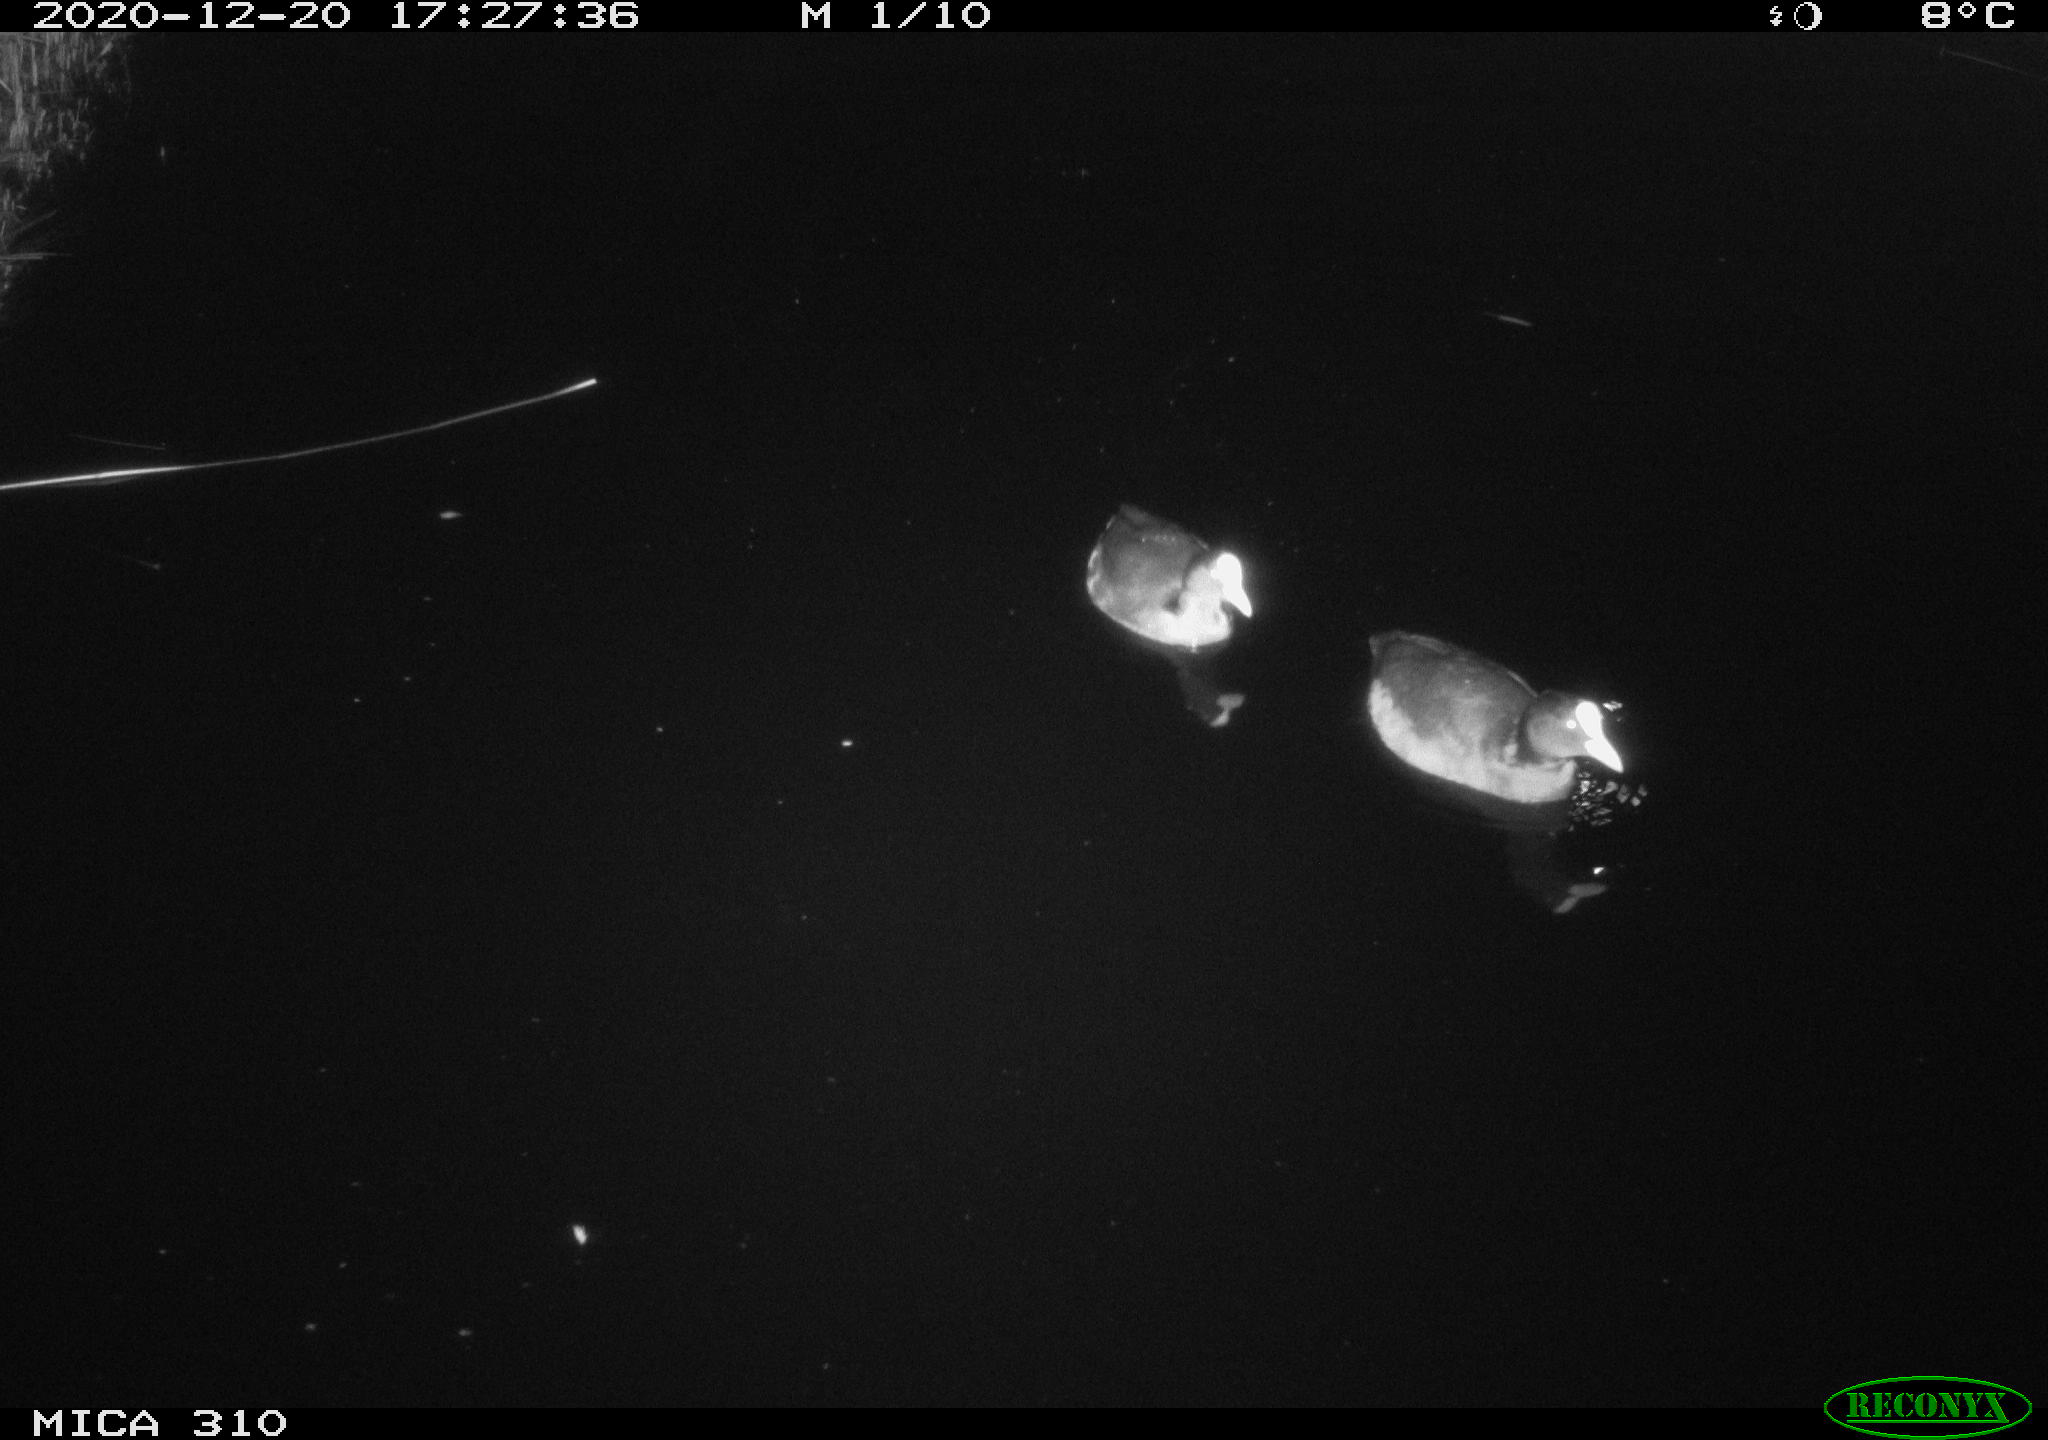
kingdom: Animalia
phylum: Chordata
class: Aves
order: Gruiformes
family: Rallidae
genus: Gallinula
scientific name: Gallinula chloropus
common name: Common moorhen
